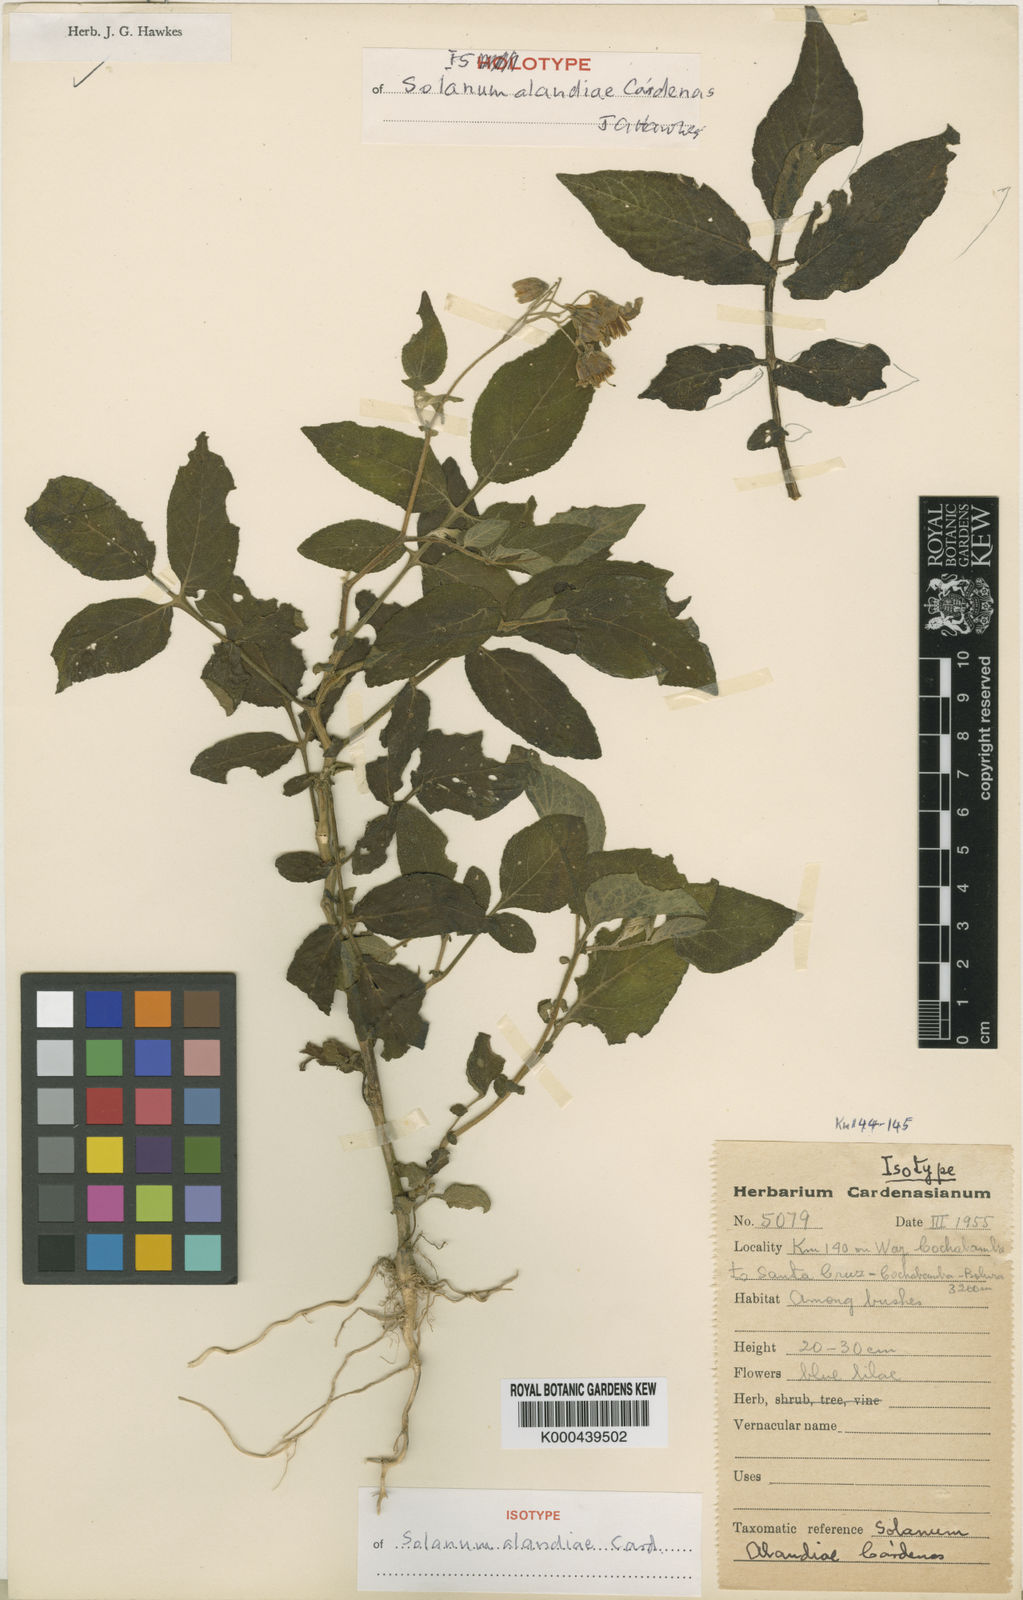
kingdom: Plantae
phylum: Tracheophyta
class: Magnoliopsida
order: Solanales
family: Solanaceae
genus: Solanum
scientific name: Solanum
